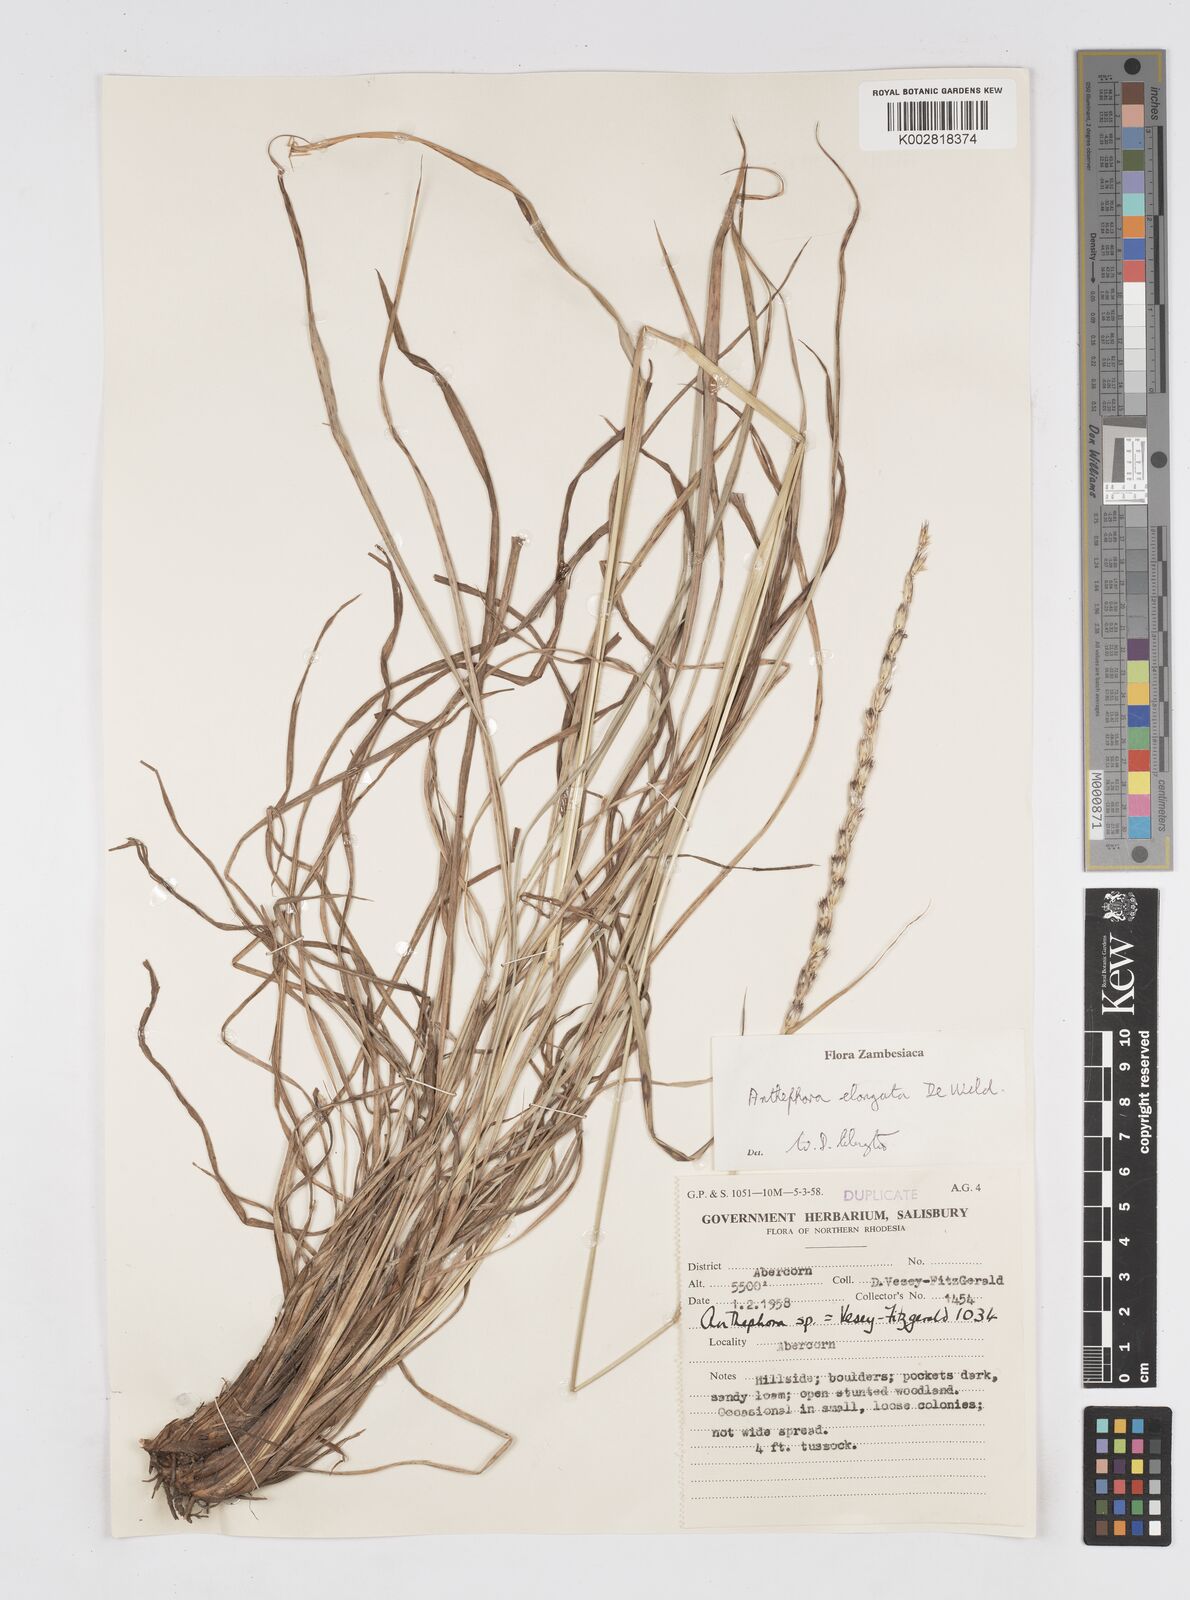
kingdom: Plantae
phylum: Tracheophyta
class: Liliopsida
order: Poales
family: Poaceae
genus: Anthephora
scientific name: Anthephora elongata
